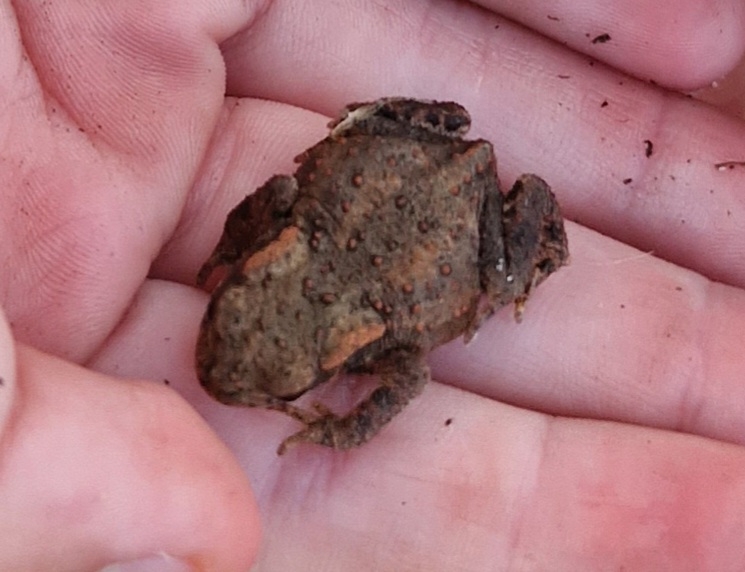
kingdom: Animalia
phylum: Chordata
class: Amphibia
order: Anura
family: Bufonidae
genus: Bufo
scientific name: Bufo bufo
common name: Skrubtudse
